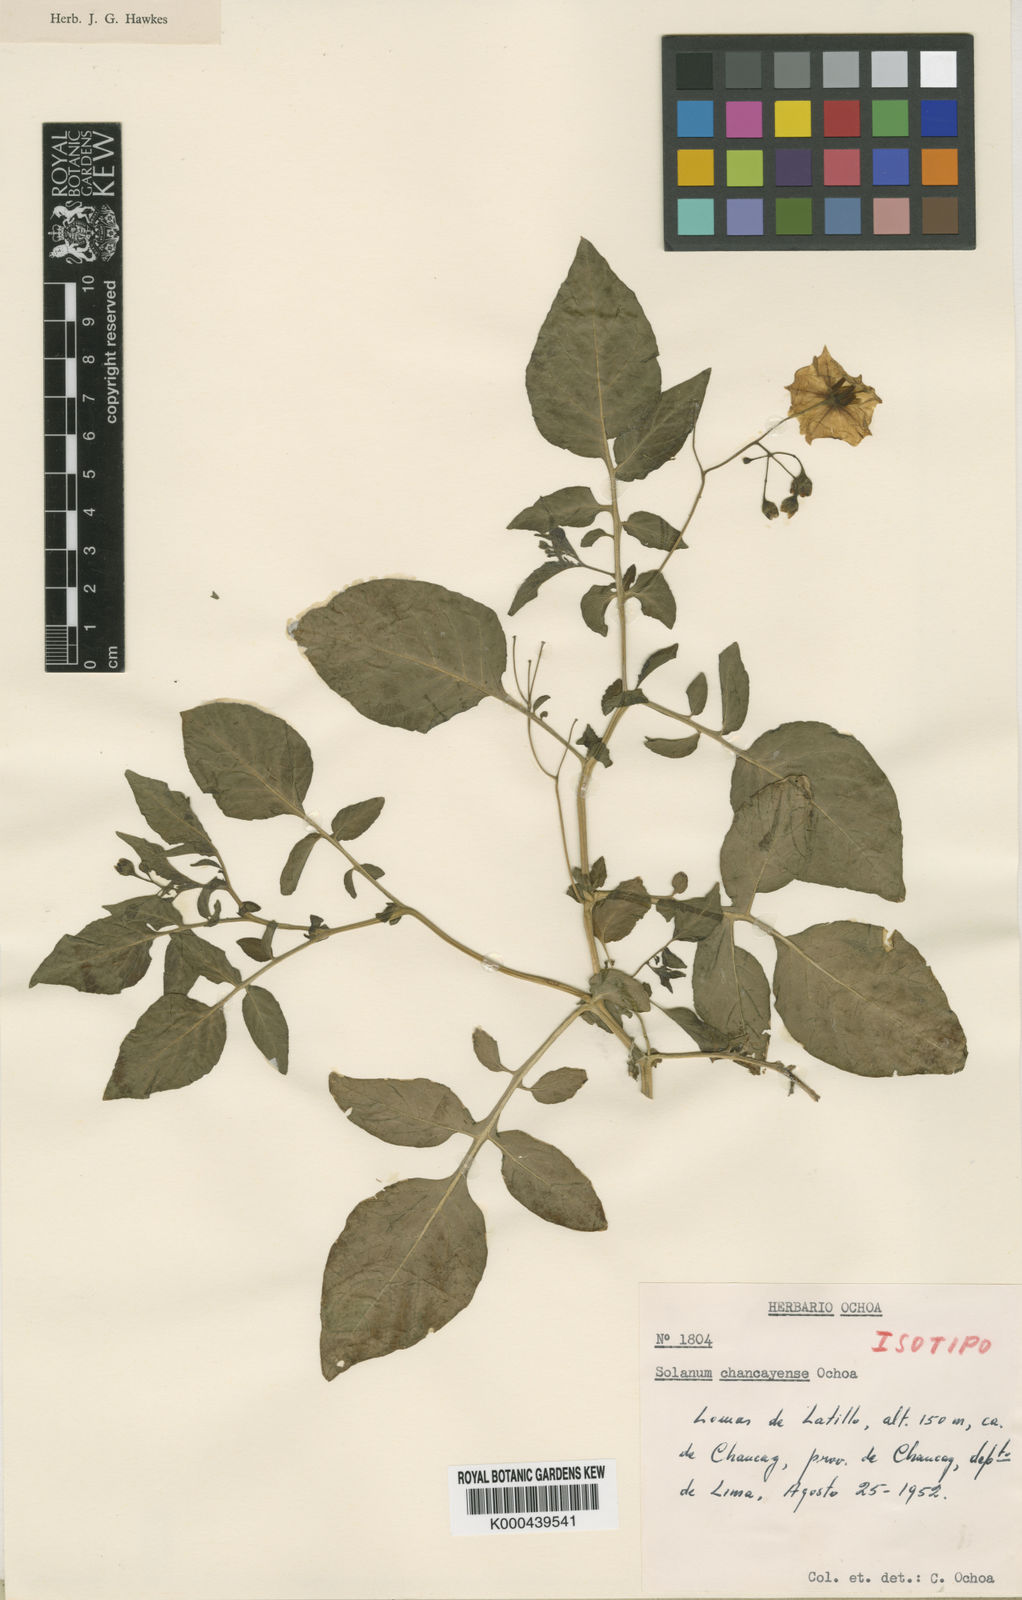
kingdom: Plantae
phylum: Tracheophyta
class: Magnoliopsida
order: Solanales
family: Solanaceae
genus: Solanum
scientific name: Solanum mochiquense
